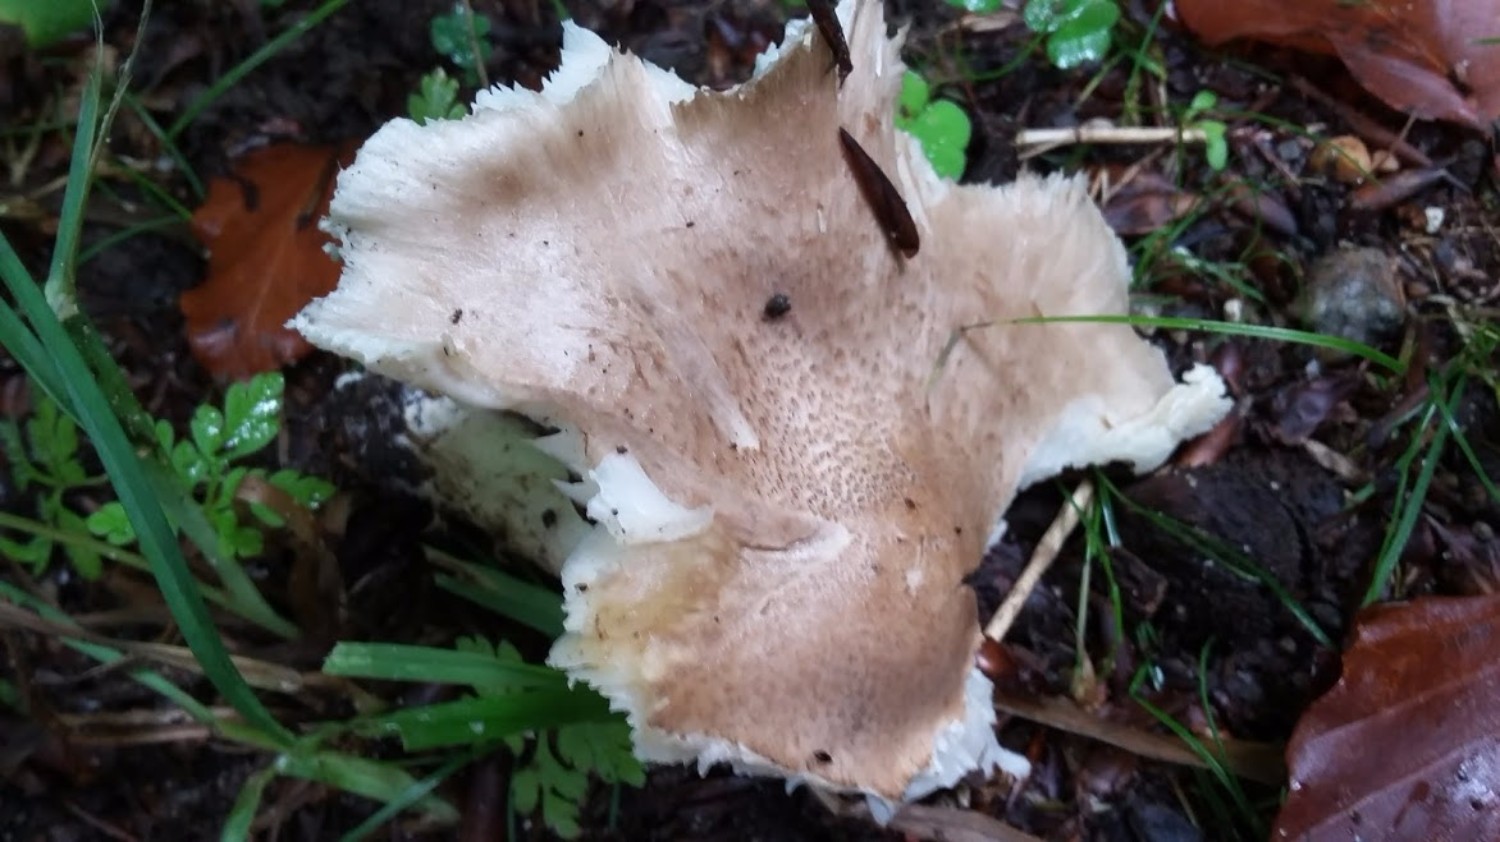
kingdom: Fungi
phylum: Basidiomycota
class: Agaricomycetes
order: Agaricales
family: Tricholomataceae
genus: Tricholoma
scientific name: Tricholoma scalpturatum
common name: gulplettet ridderhat
